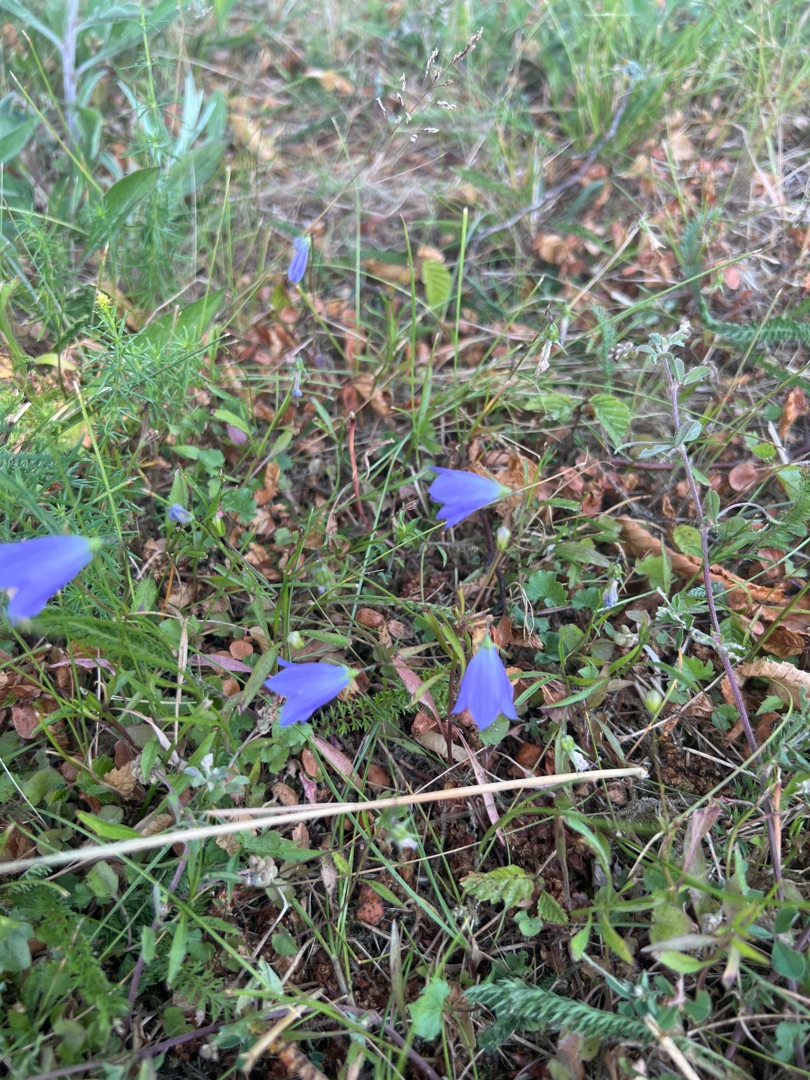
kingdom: Plantae
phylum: Tracheophyta
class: Magnoliopsida
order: Asterales
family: Campanulaceae
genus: Campanula
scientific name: Campanula rotundifolia
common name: Liden klokke
